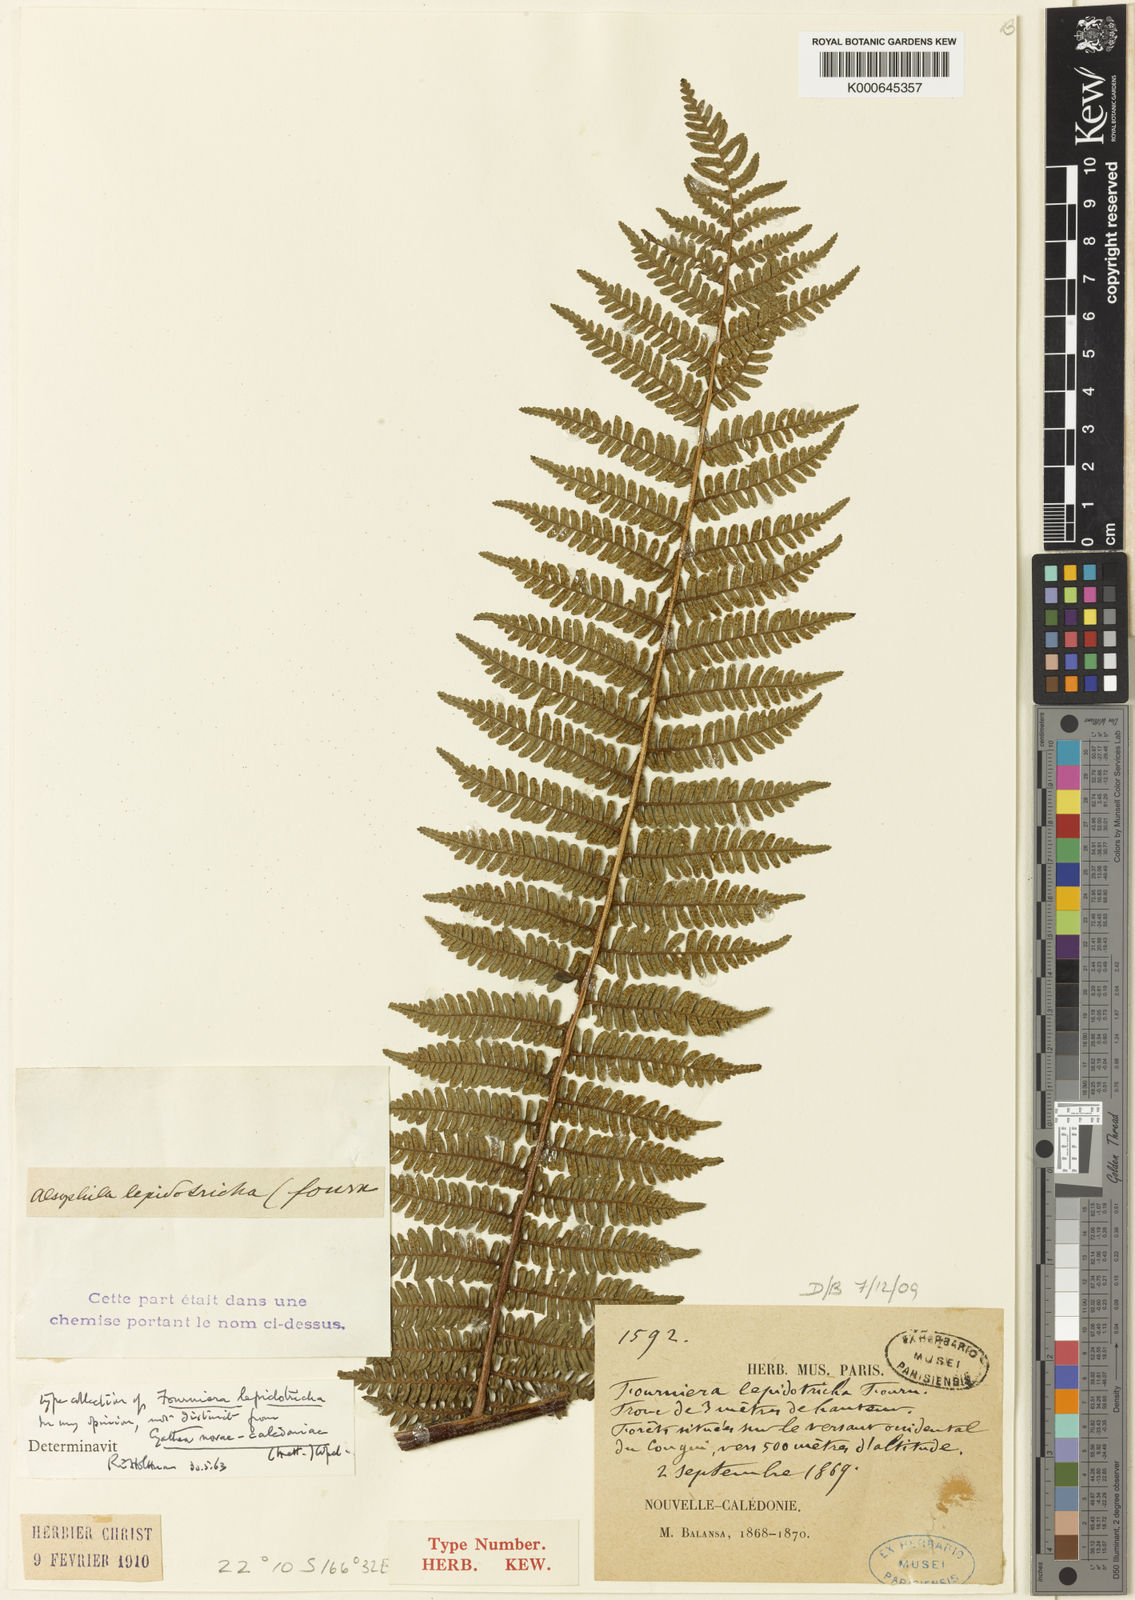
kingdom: Plantae
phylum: Tracheophyta
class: Polypodiopsida
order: Cyatheales
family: Cyatheaceae
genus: Sphaeropteris
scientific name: Sphaeropteris novae-caledoniae
